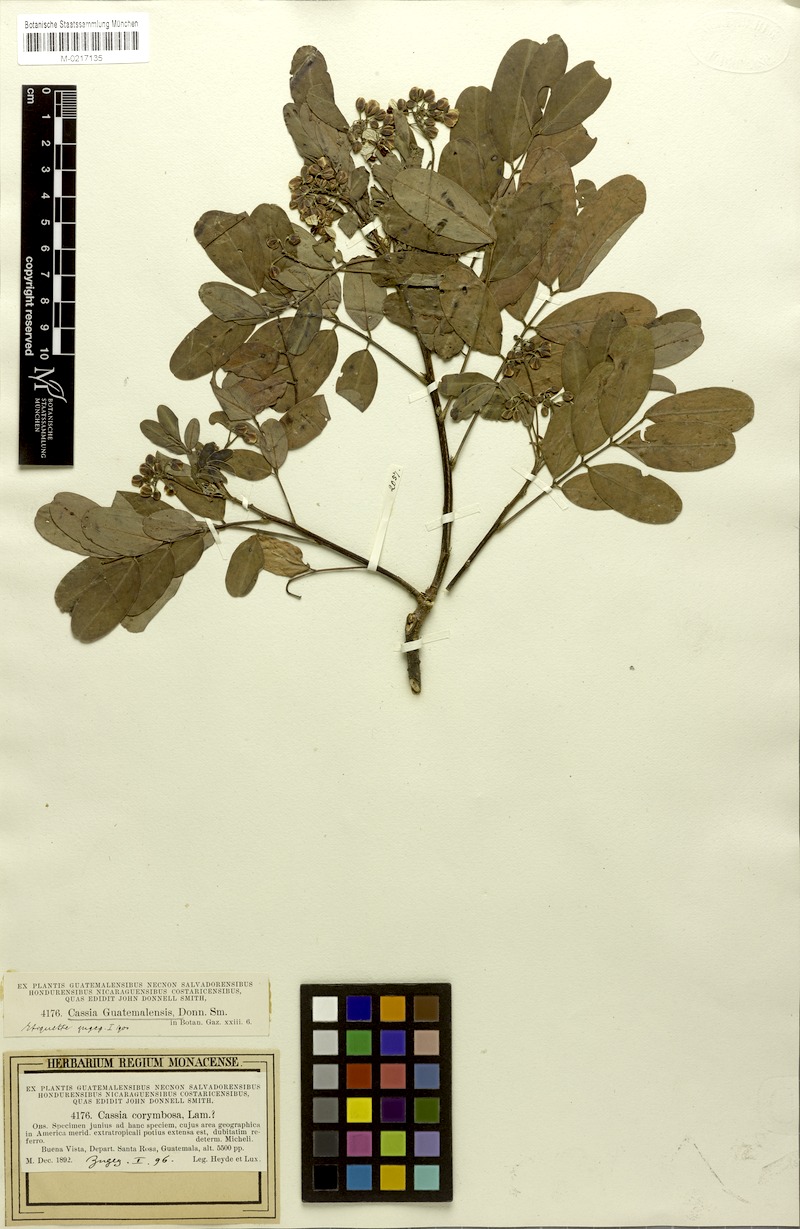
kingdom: Plantae
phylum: Tracheophyta
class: Magnoliopsida
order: Fabales
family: Fabaceae
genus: Senna
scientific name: Senna guatemalensis
